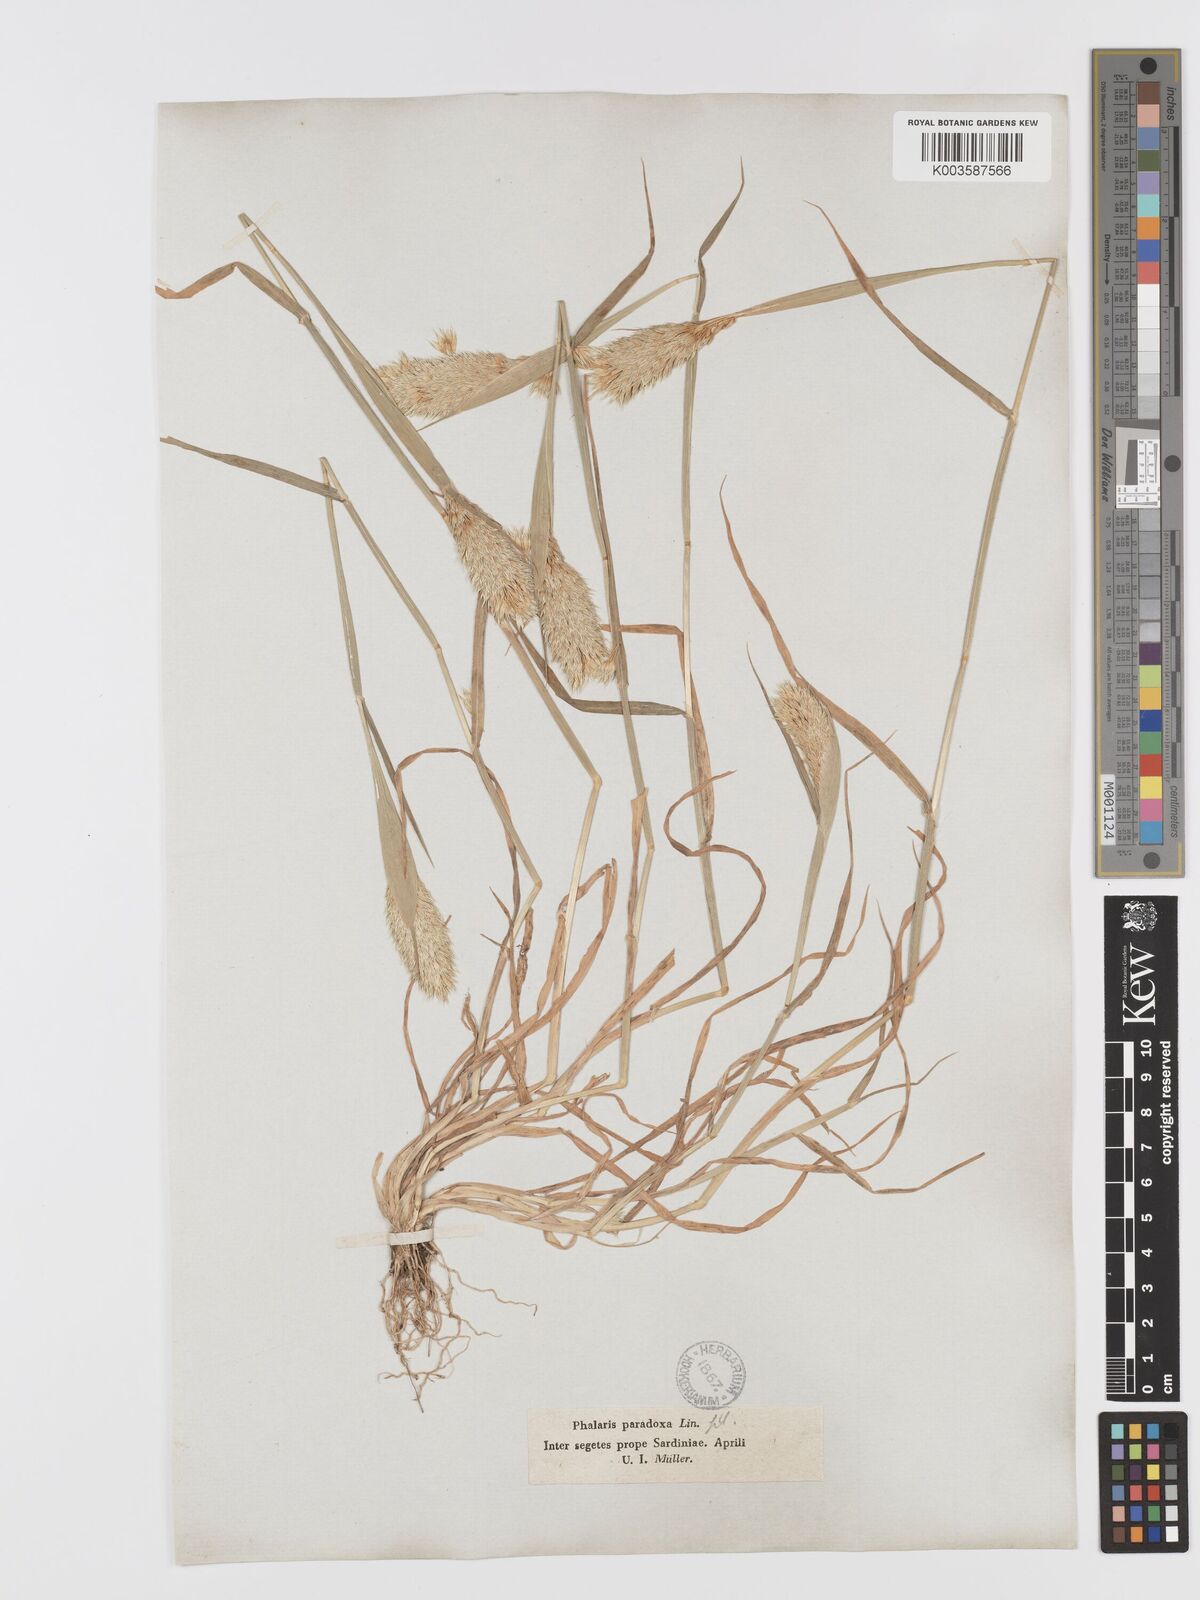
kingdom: Plantae
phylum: Tracheophyta
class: Liliopsida
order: Poales
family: Poaceae
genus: Phalaris
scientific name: Phalaris paradoxa
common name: Awned canary-grass
